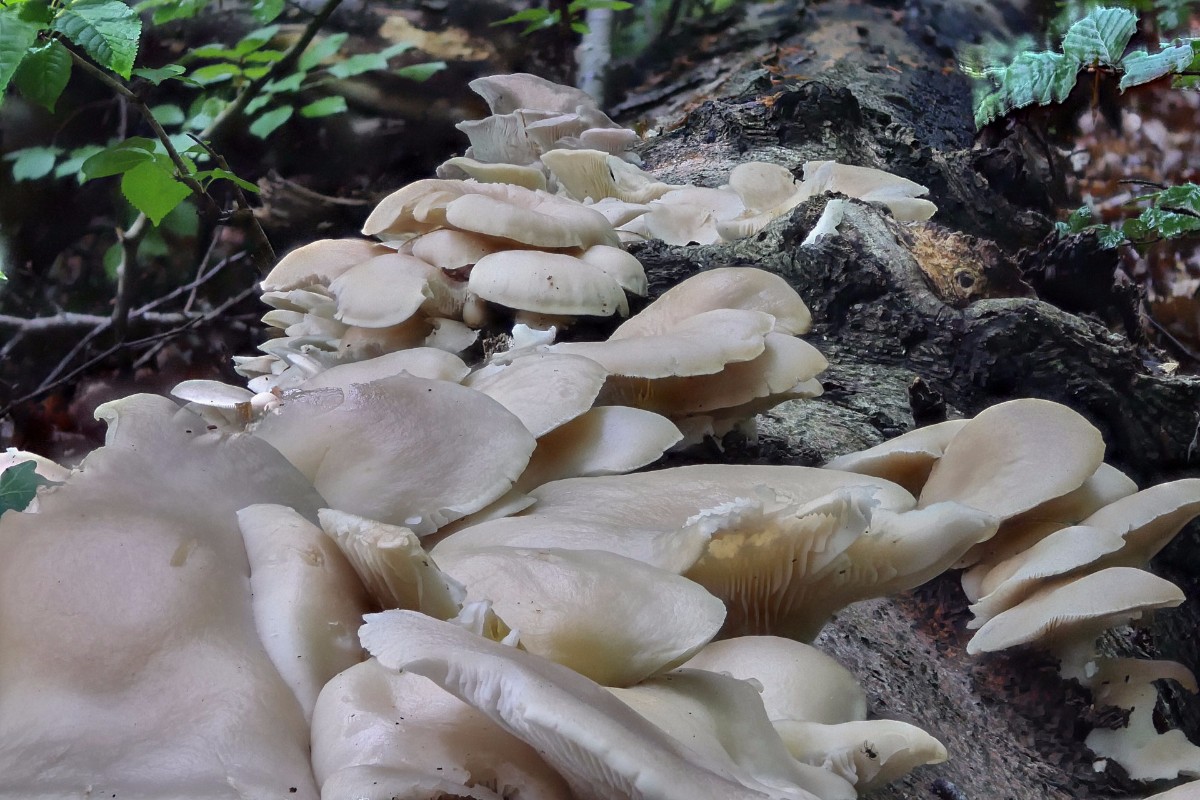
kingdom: Fungi
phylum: Basidiomycota
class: Agaricomycetes
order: Agaricales
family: Pleurotaceae
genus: Pleurotus
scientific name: Pleurotus pulmonarius
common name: sommer-østershat
